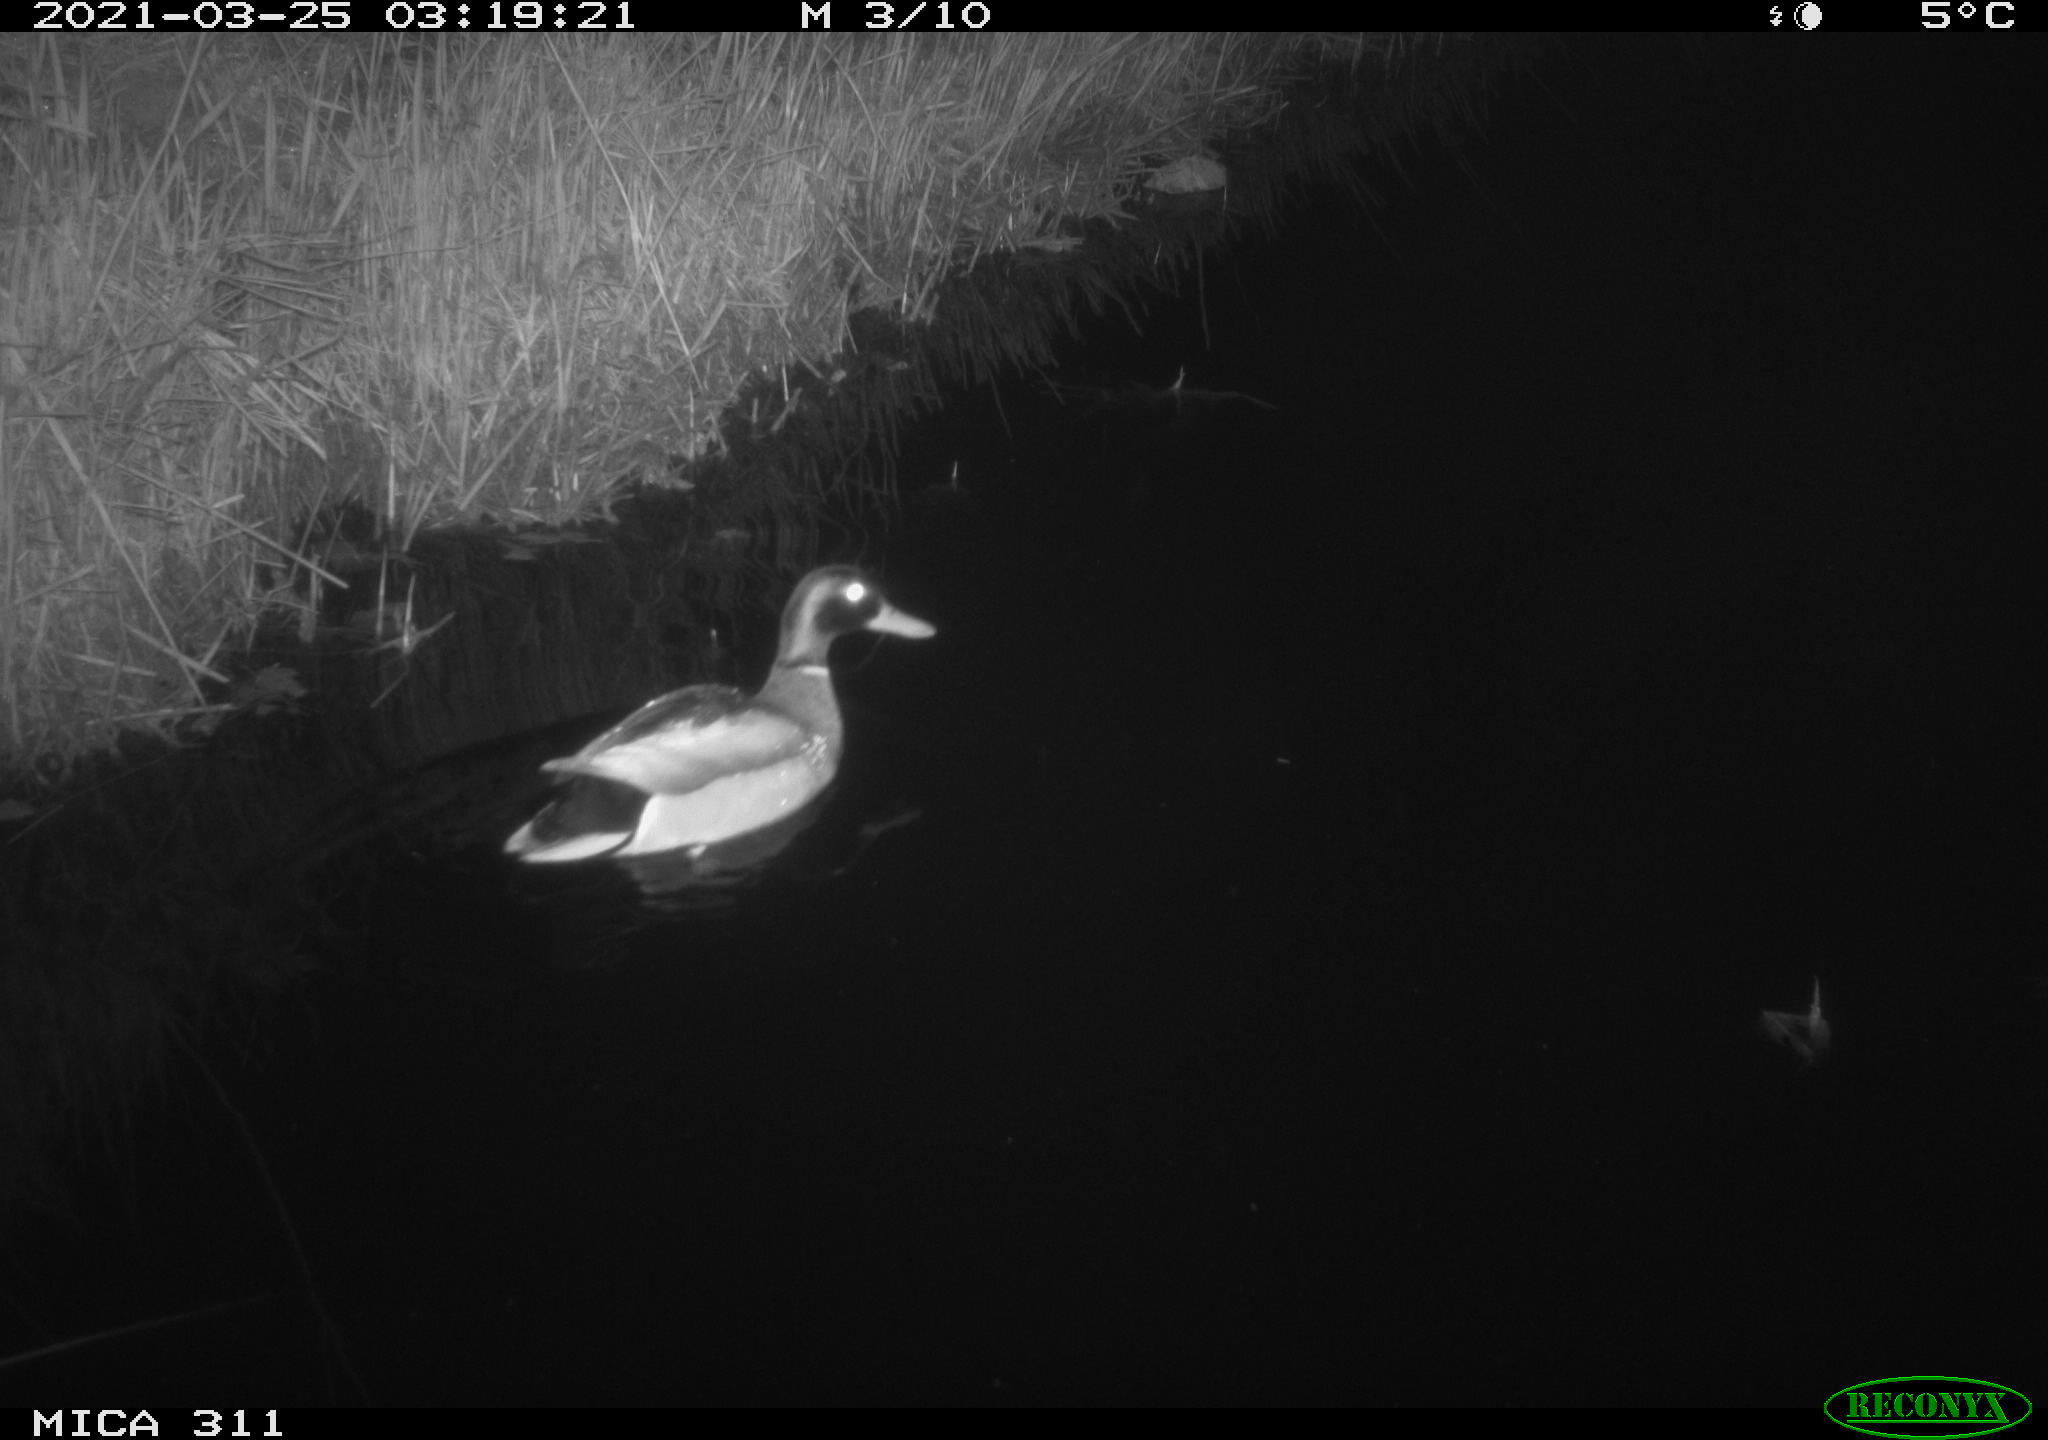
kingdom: Animalia
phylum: Chordata
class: Aves
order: Anseriformes
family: Anatidae
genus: Anas
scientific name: Anas
